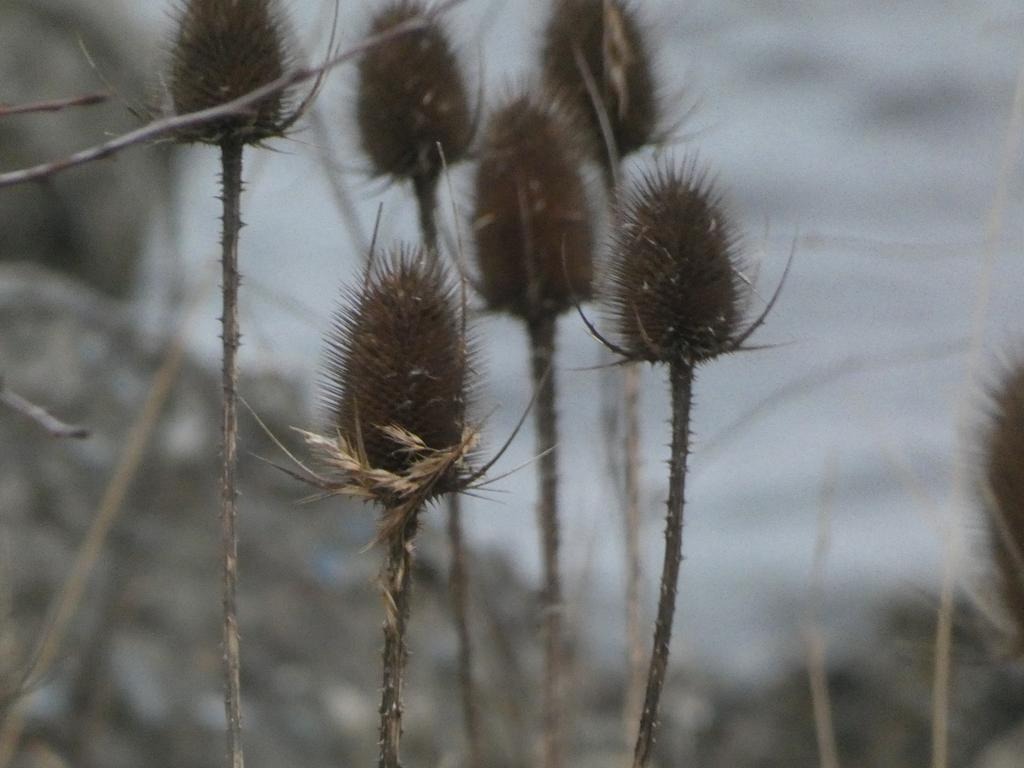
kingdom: Plantae
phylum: Tracheophyta
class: Magnoliopsida
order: Dipsacales
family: Caprifoliaceae
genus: Dipsacus
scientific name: Dipsacus fullonum
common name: Gærde-kartebolle
